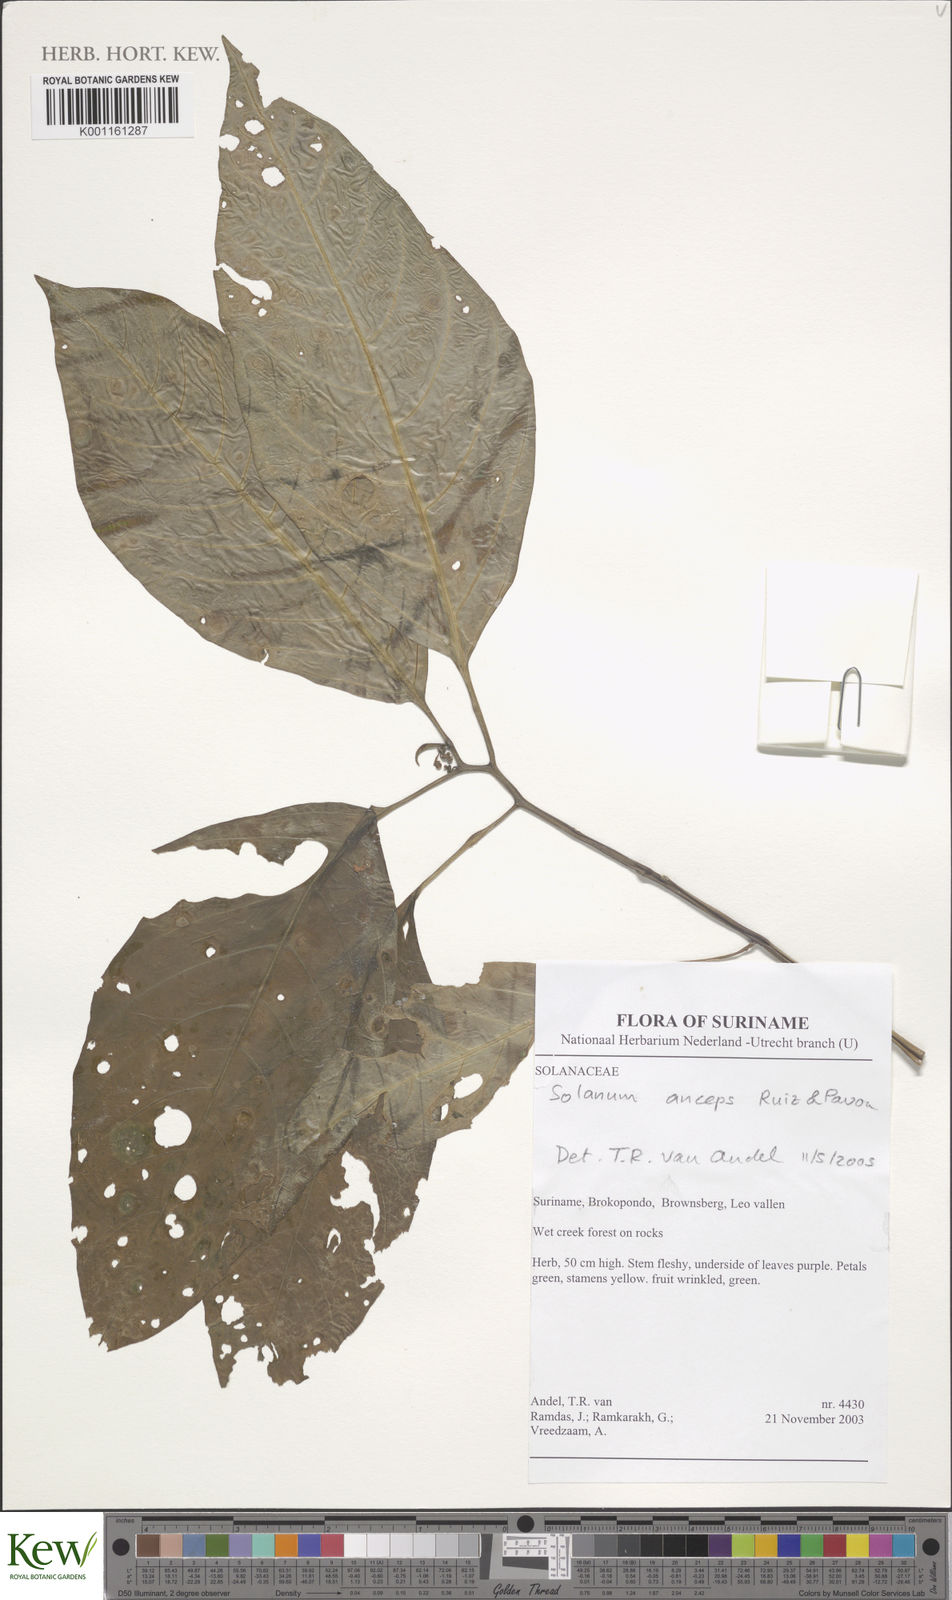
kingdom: Plantae
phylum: Tracheophyta
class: Magnoliopsida
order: Solanales
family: Solanaceae
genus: Solanum
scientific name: Solanum anceps
